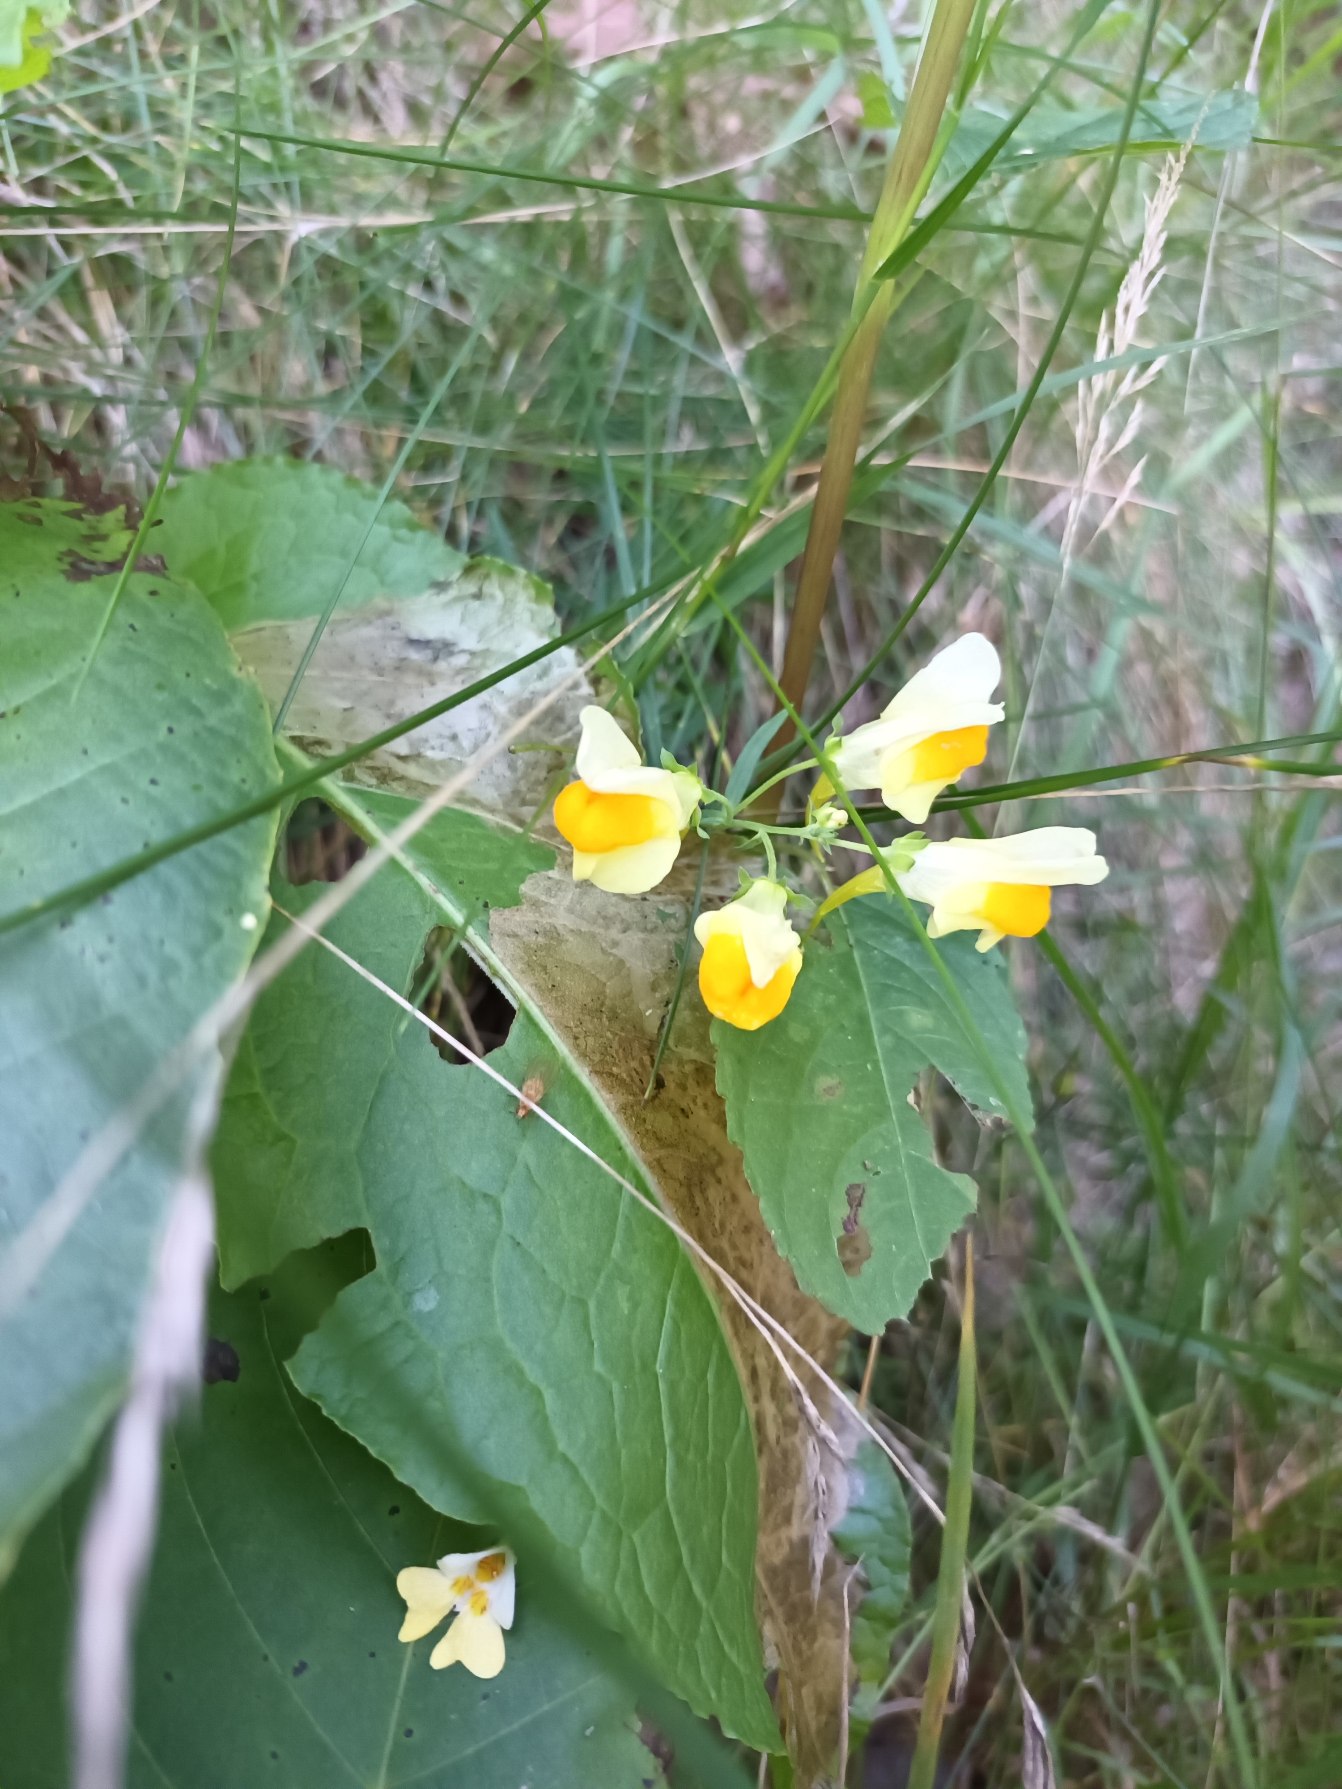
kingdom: Plantae
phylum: Tracheophyta
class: Magnoliopsida
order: Lamiales
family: Plantaginaceae
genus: Linaria
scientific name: Linaria vulgaris
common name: Almindelig torskemund
